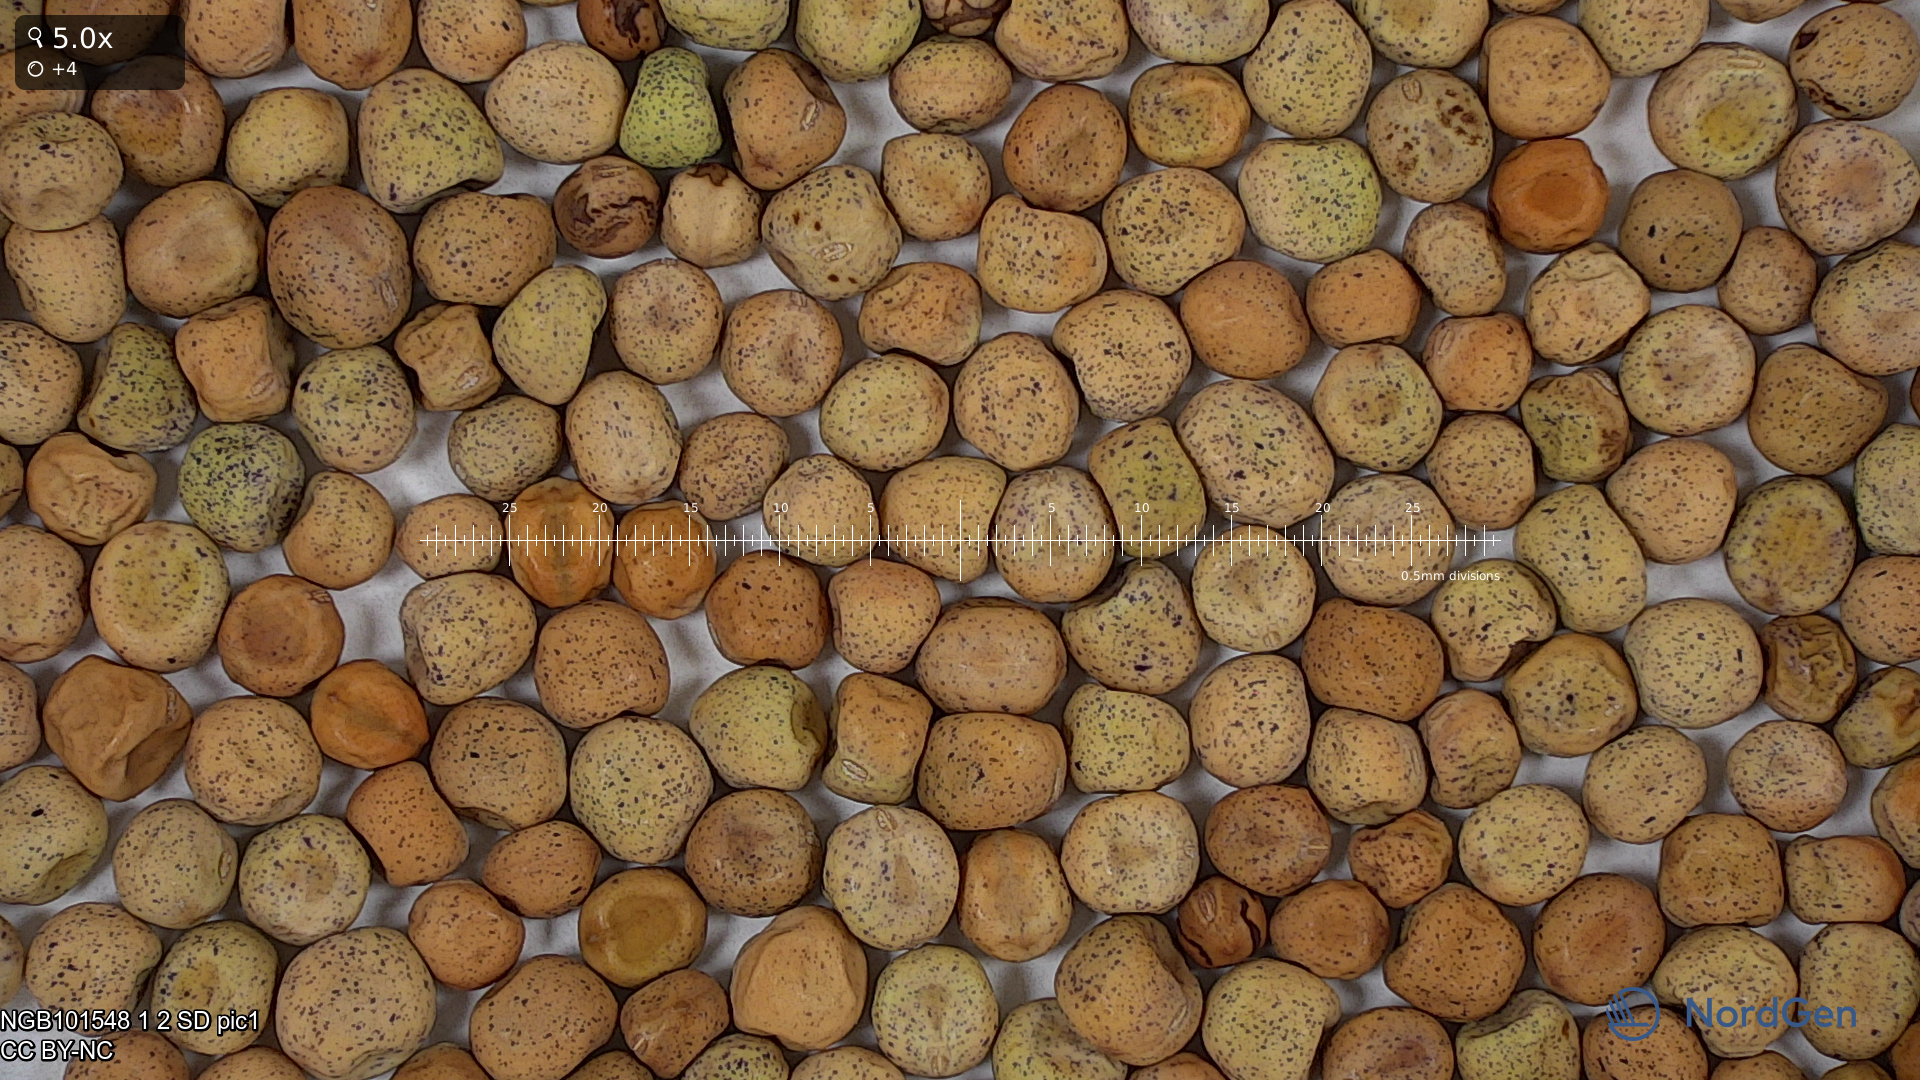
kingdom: Plantae
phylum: Tracheophyta
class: Magnoliopsida
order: Fabales
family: Fabaceae
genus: Lathyrus
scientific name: Lathyrus oleraceus
